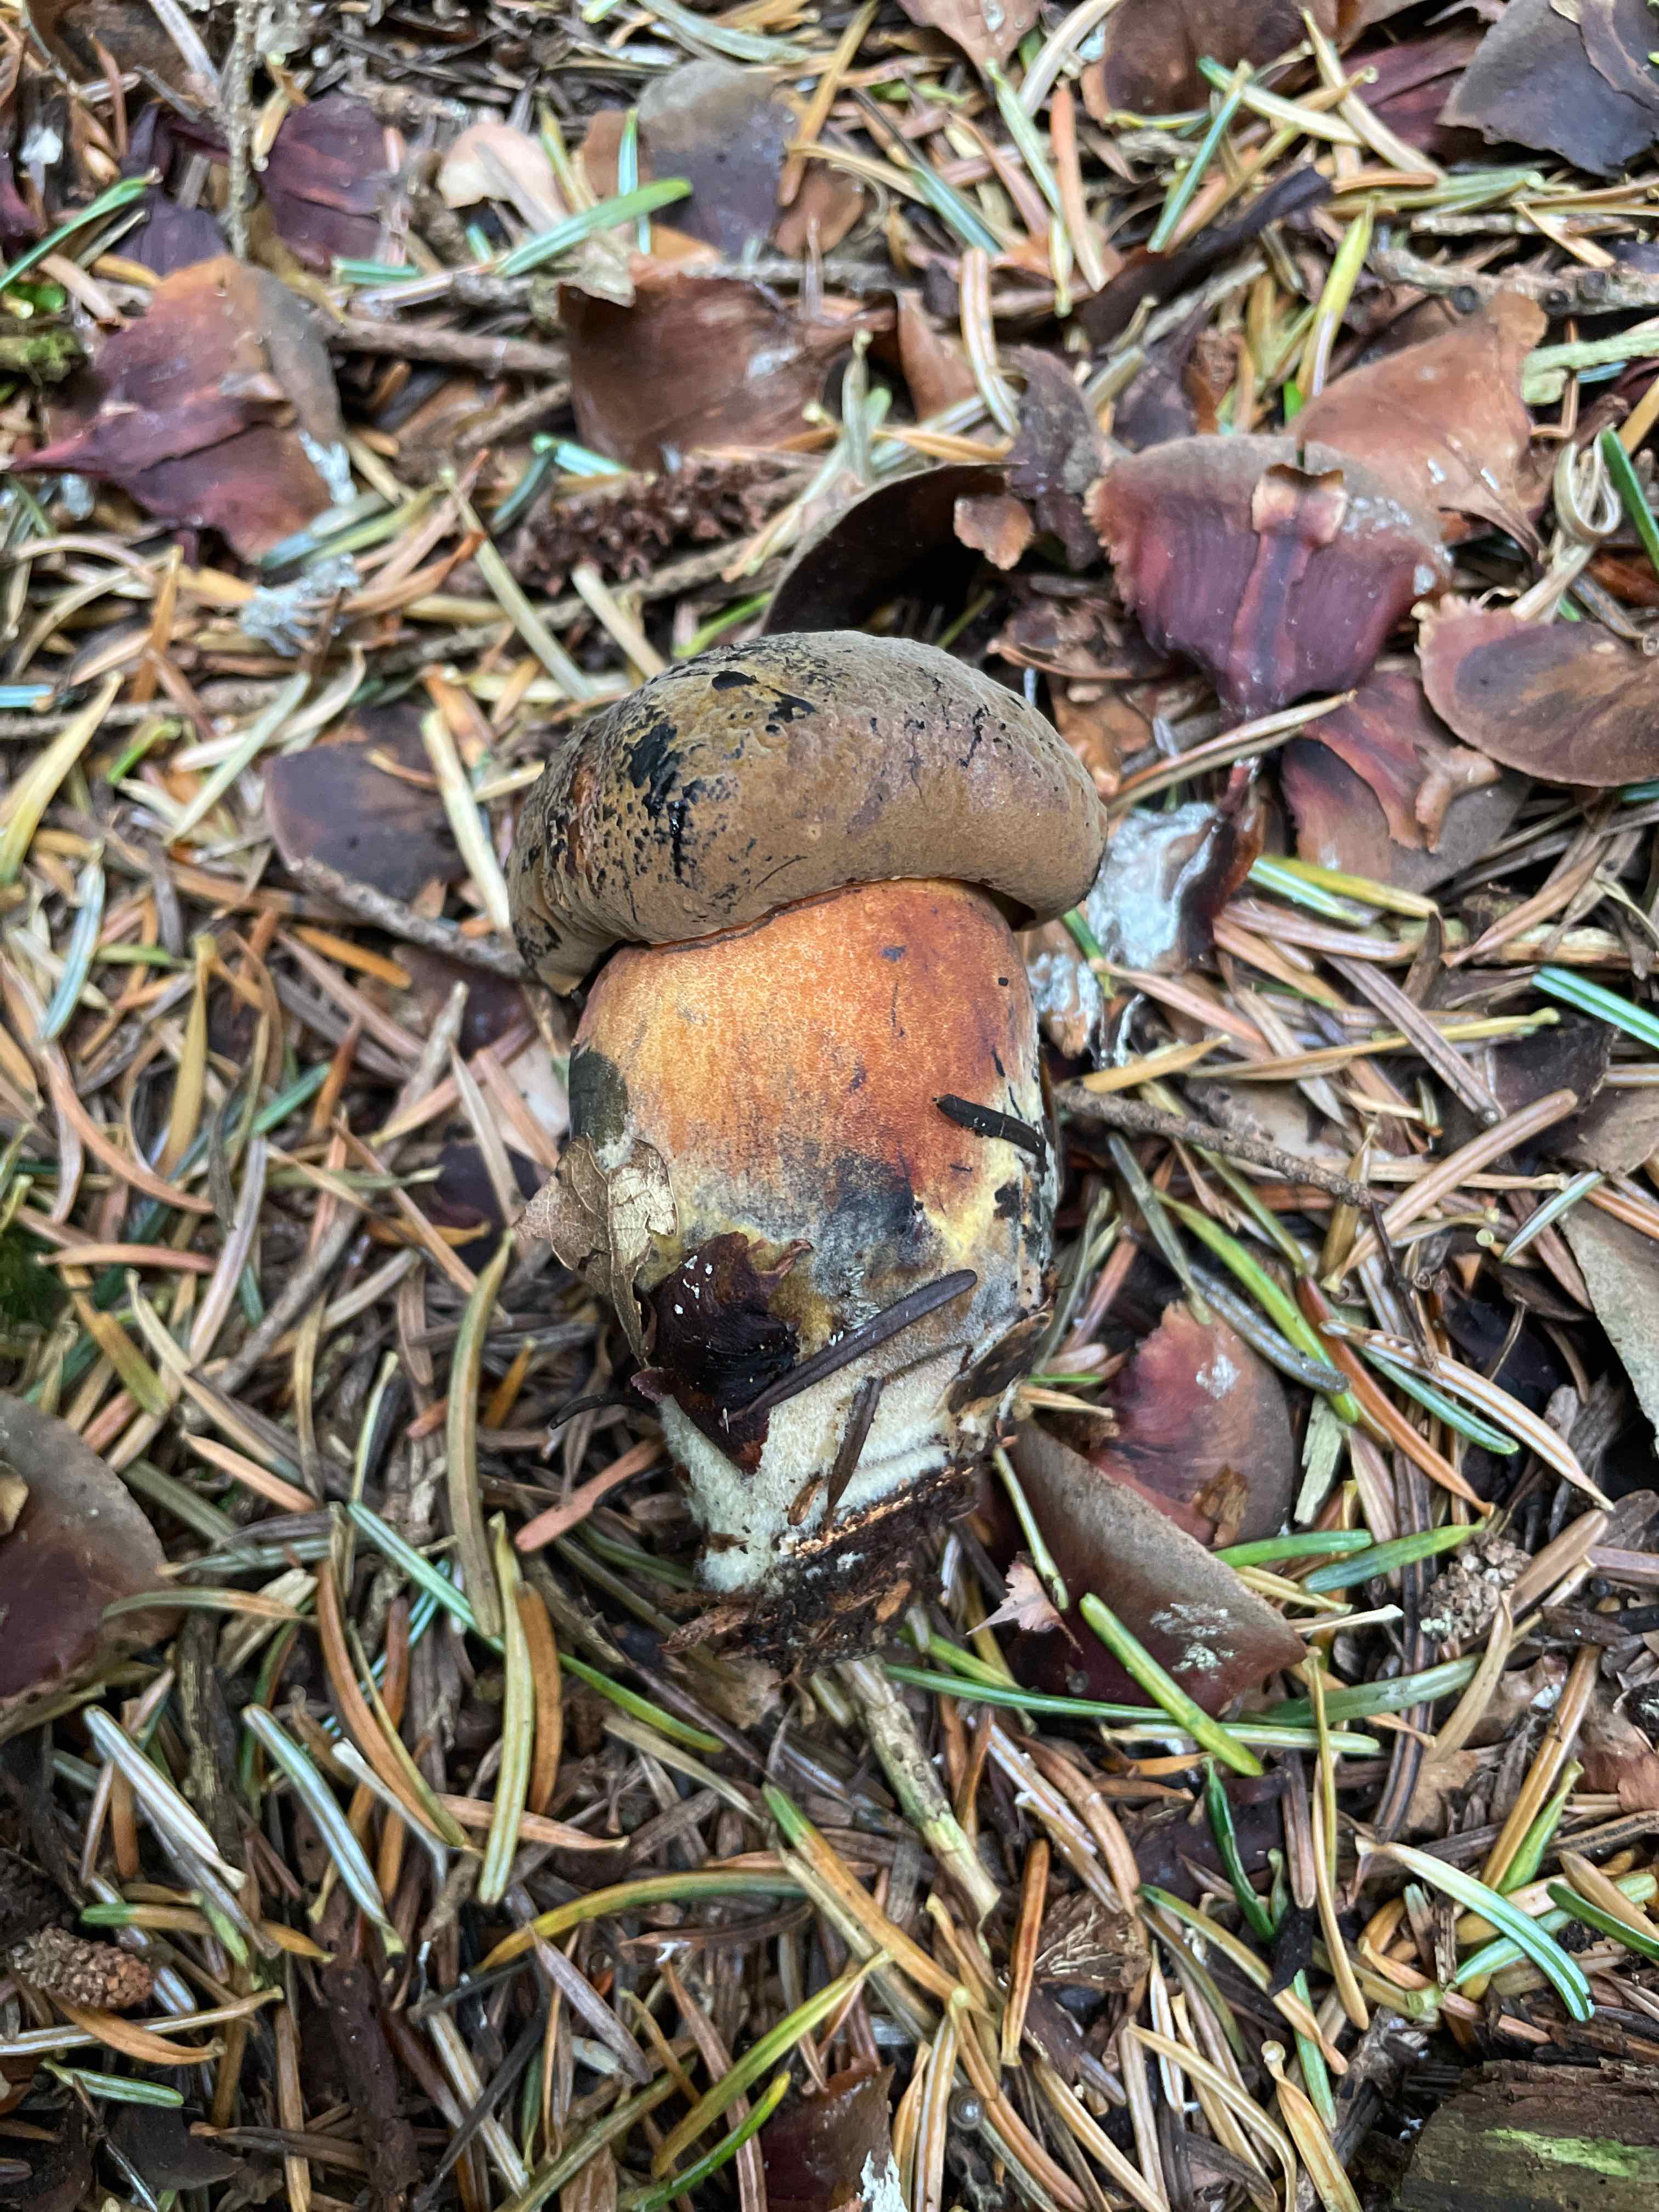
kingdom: Fungi
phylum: Basidiomycota
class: Agaricomycetes
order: Boletales
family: Boletaceae
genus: Neoboletus
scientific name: Neoboletus erythropus
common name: punktstokket indigorørhat
